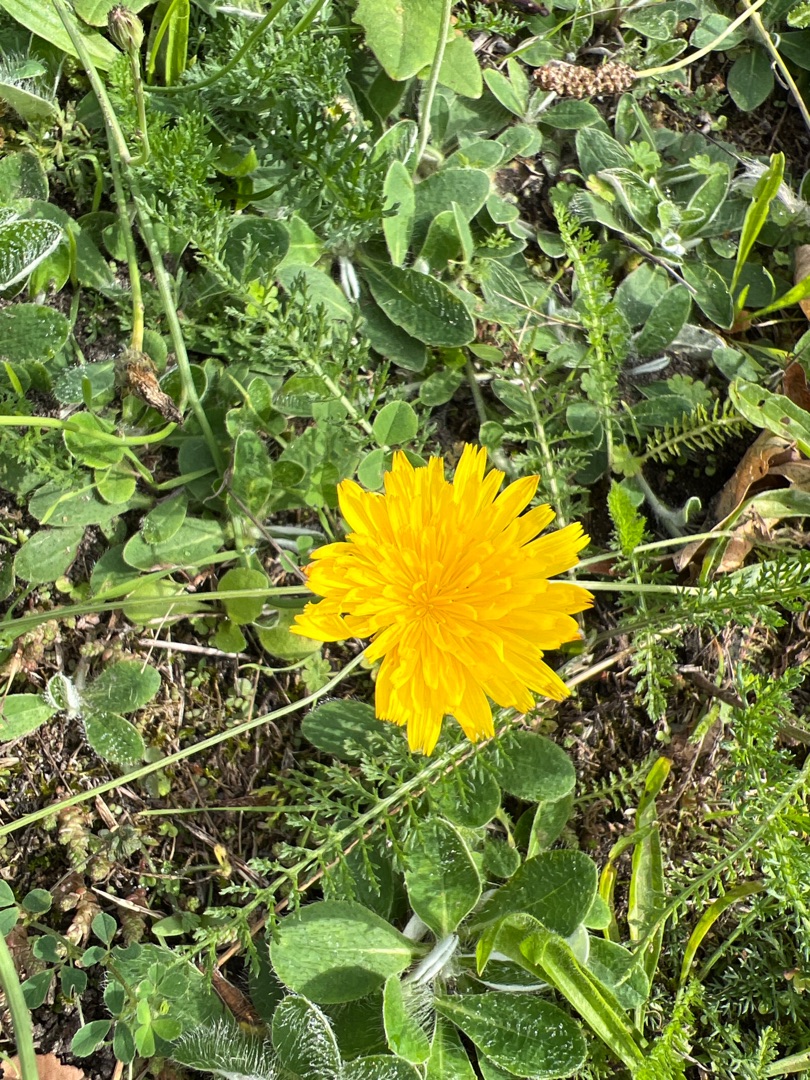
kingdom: Plantae
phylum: Tracheophyta
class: Magnoliopsida
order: Asterales
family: Asteraceae
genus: Hypochaeris
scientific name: Hypochaeris radicata
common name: Almindelig kongepen
